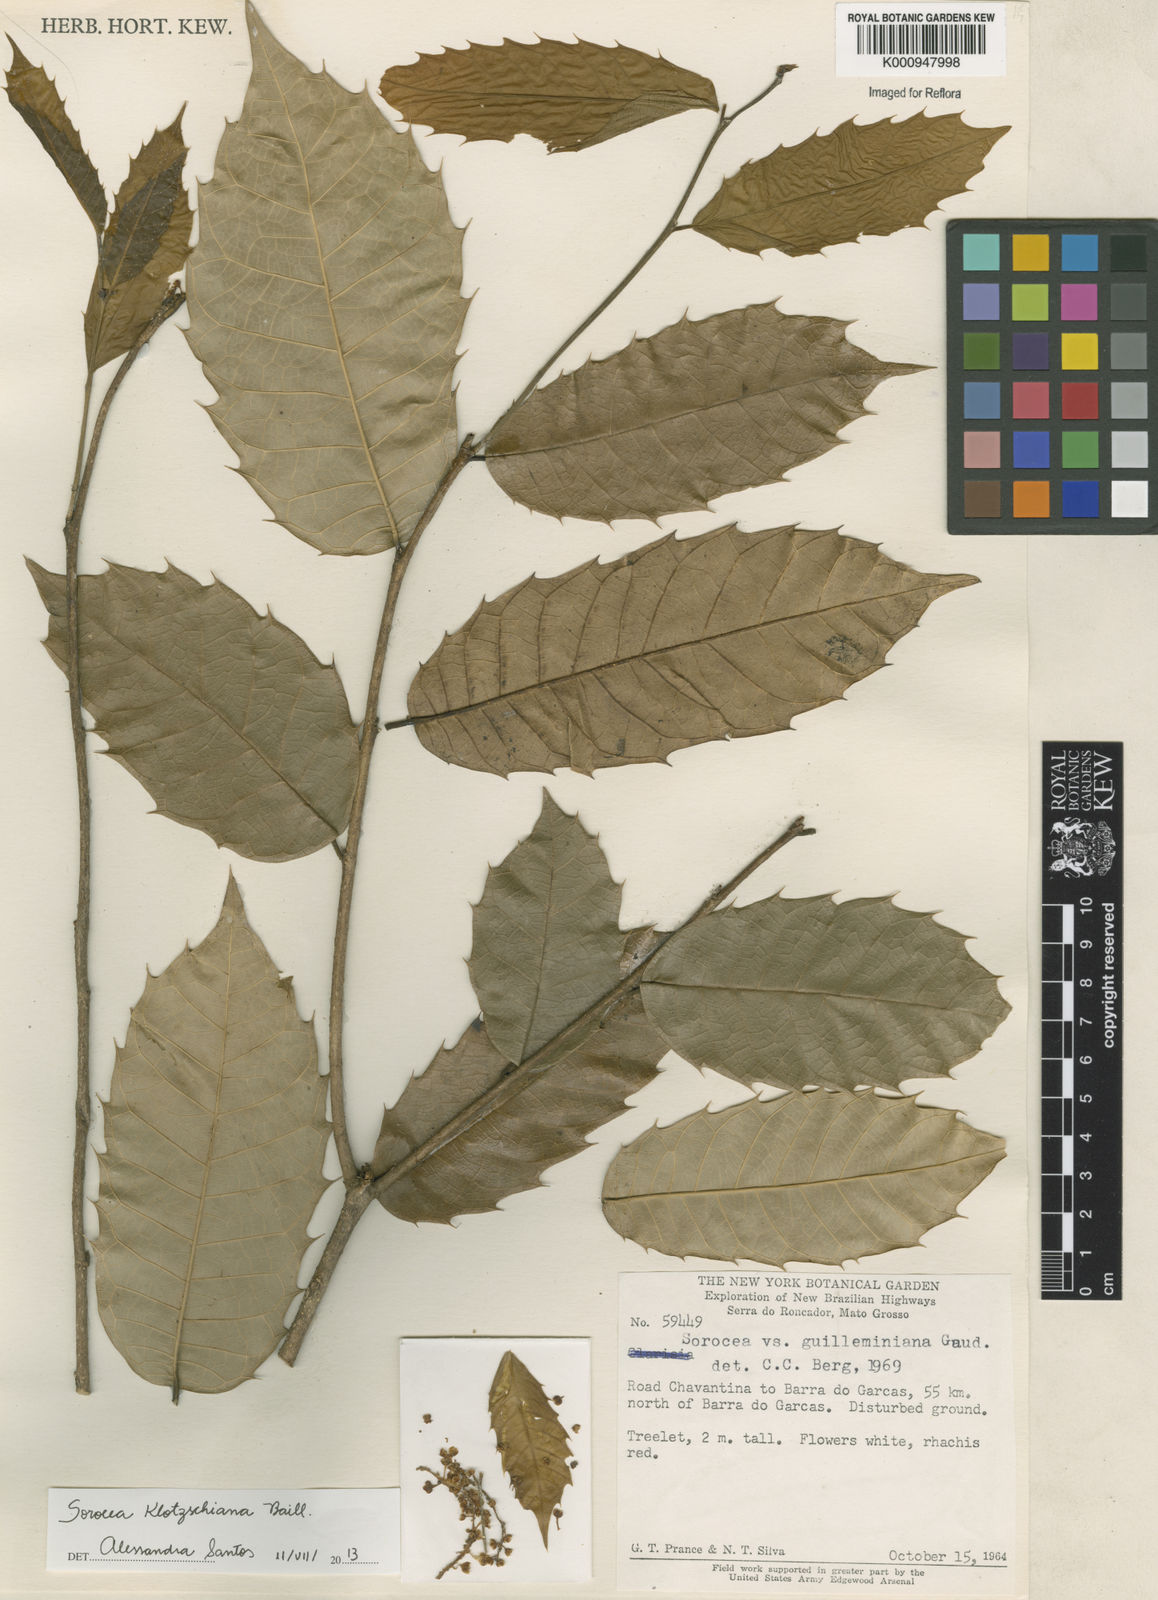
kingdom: Plantae
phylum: Tracheophyta
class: Magnoliopsida
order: Rosales
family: Moraceae
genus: Sorocea
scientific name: Sorocea guilleminiana
